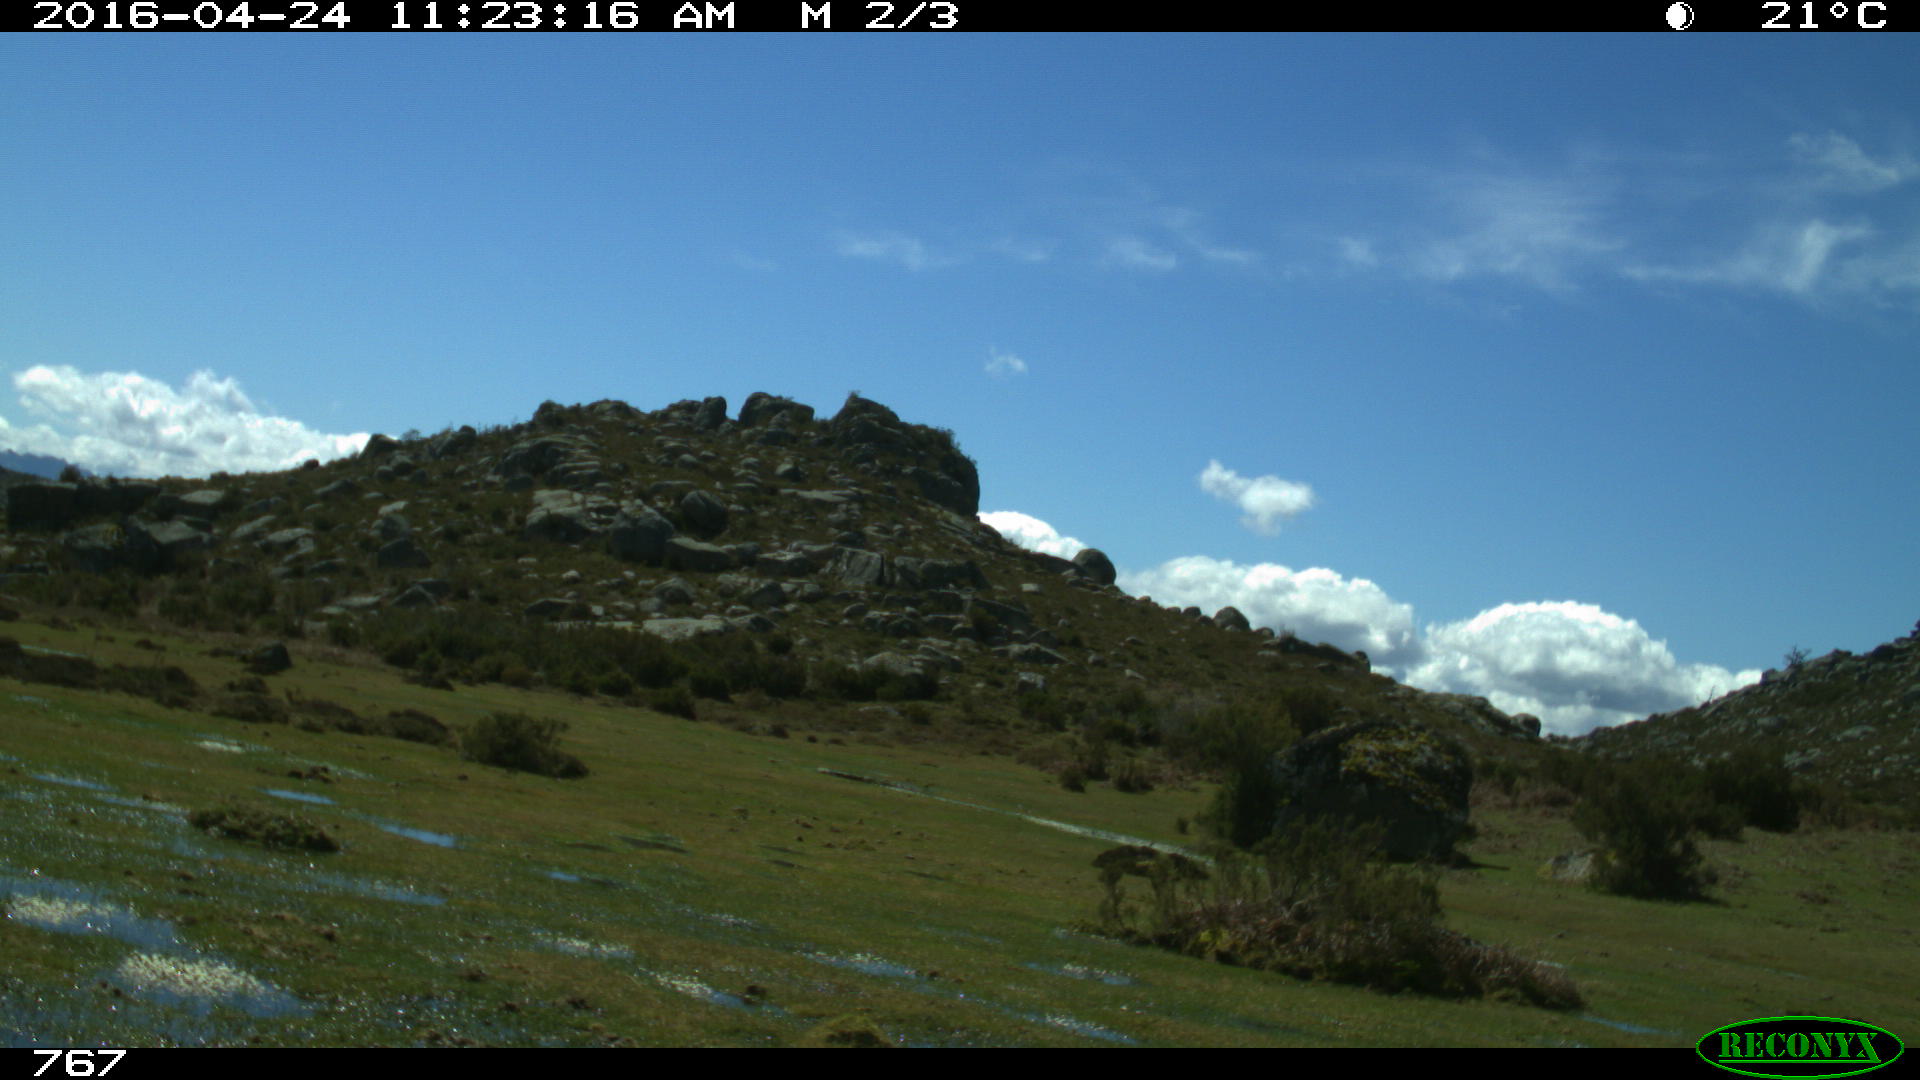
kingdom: Animalia
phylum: Chordata
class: Mammalia
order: Artiodactyla
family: Bovidae
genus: Bos
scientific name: Bos taurus
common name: Domesticated cattle
